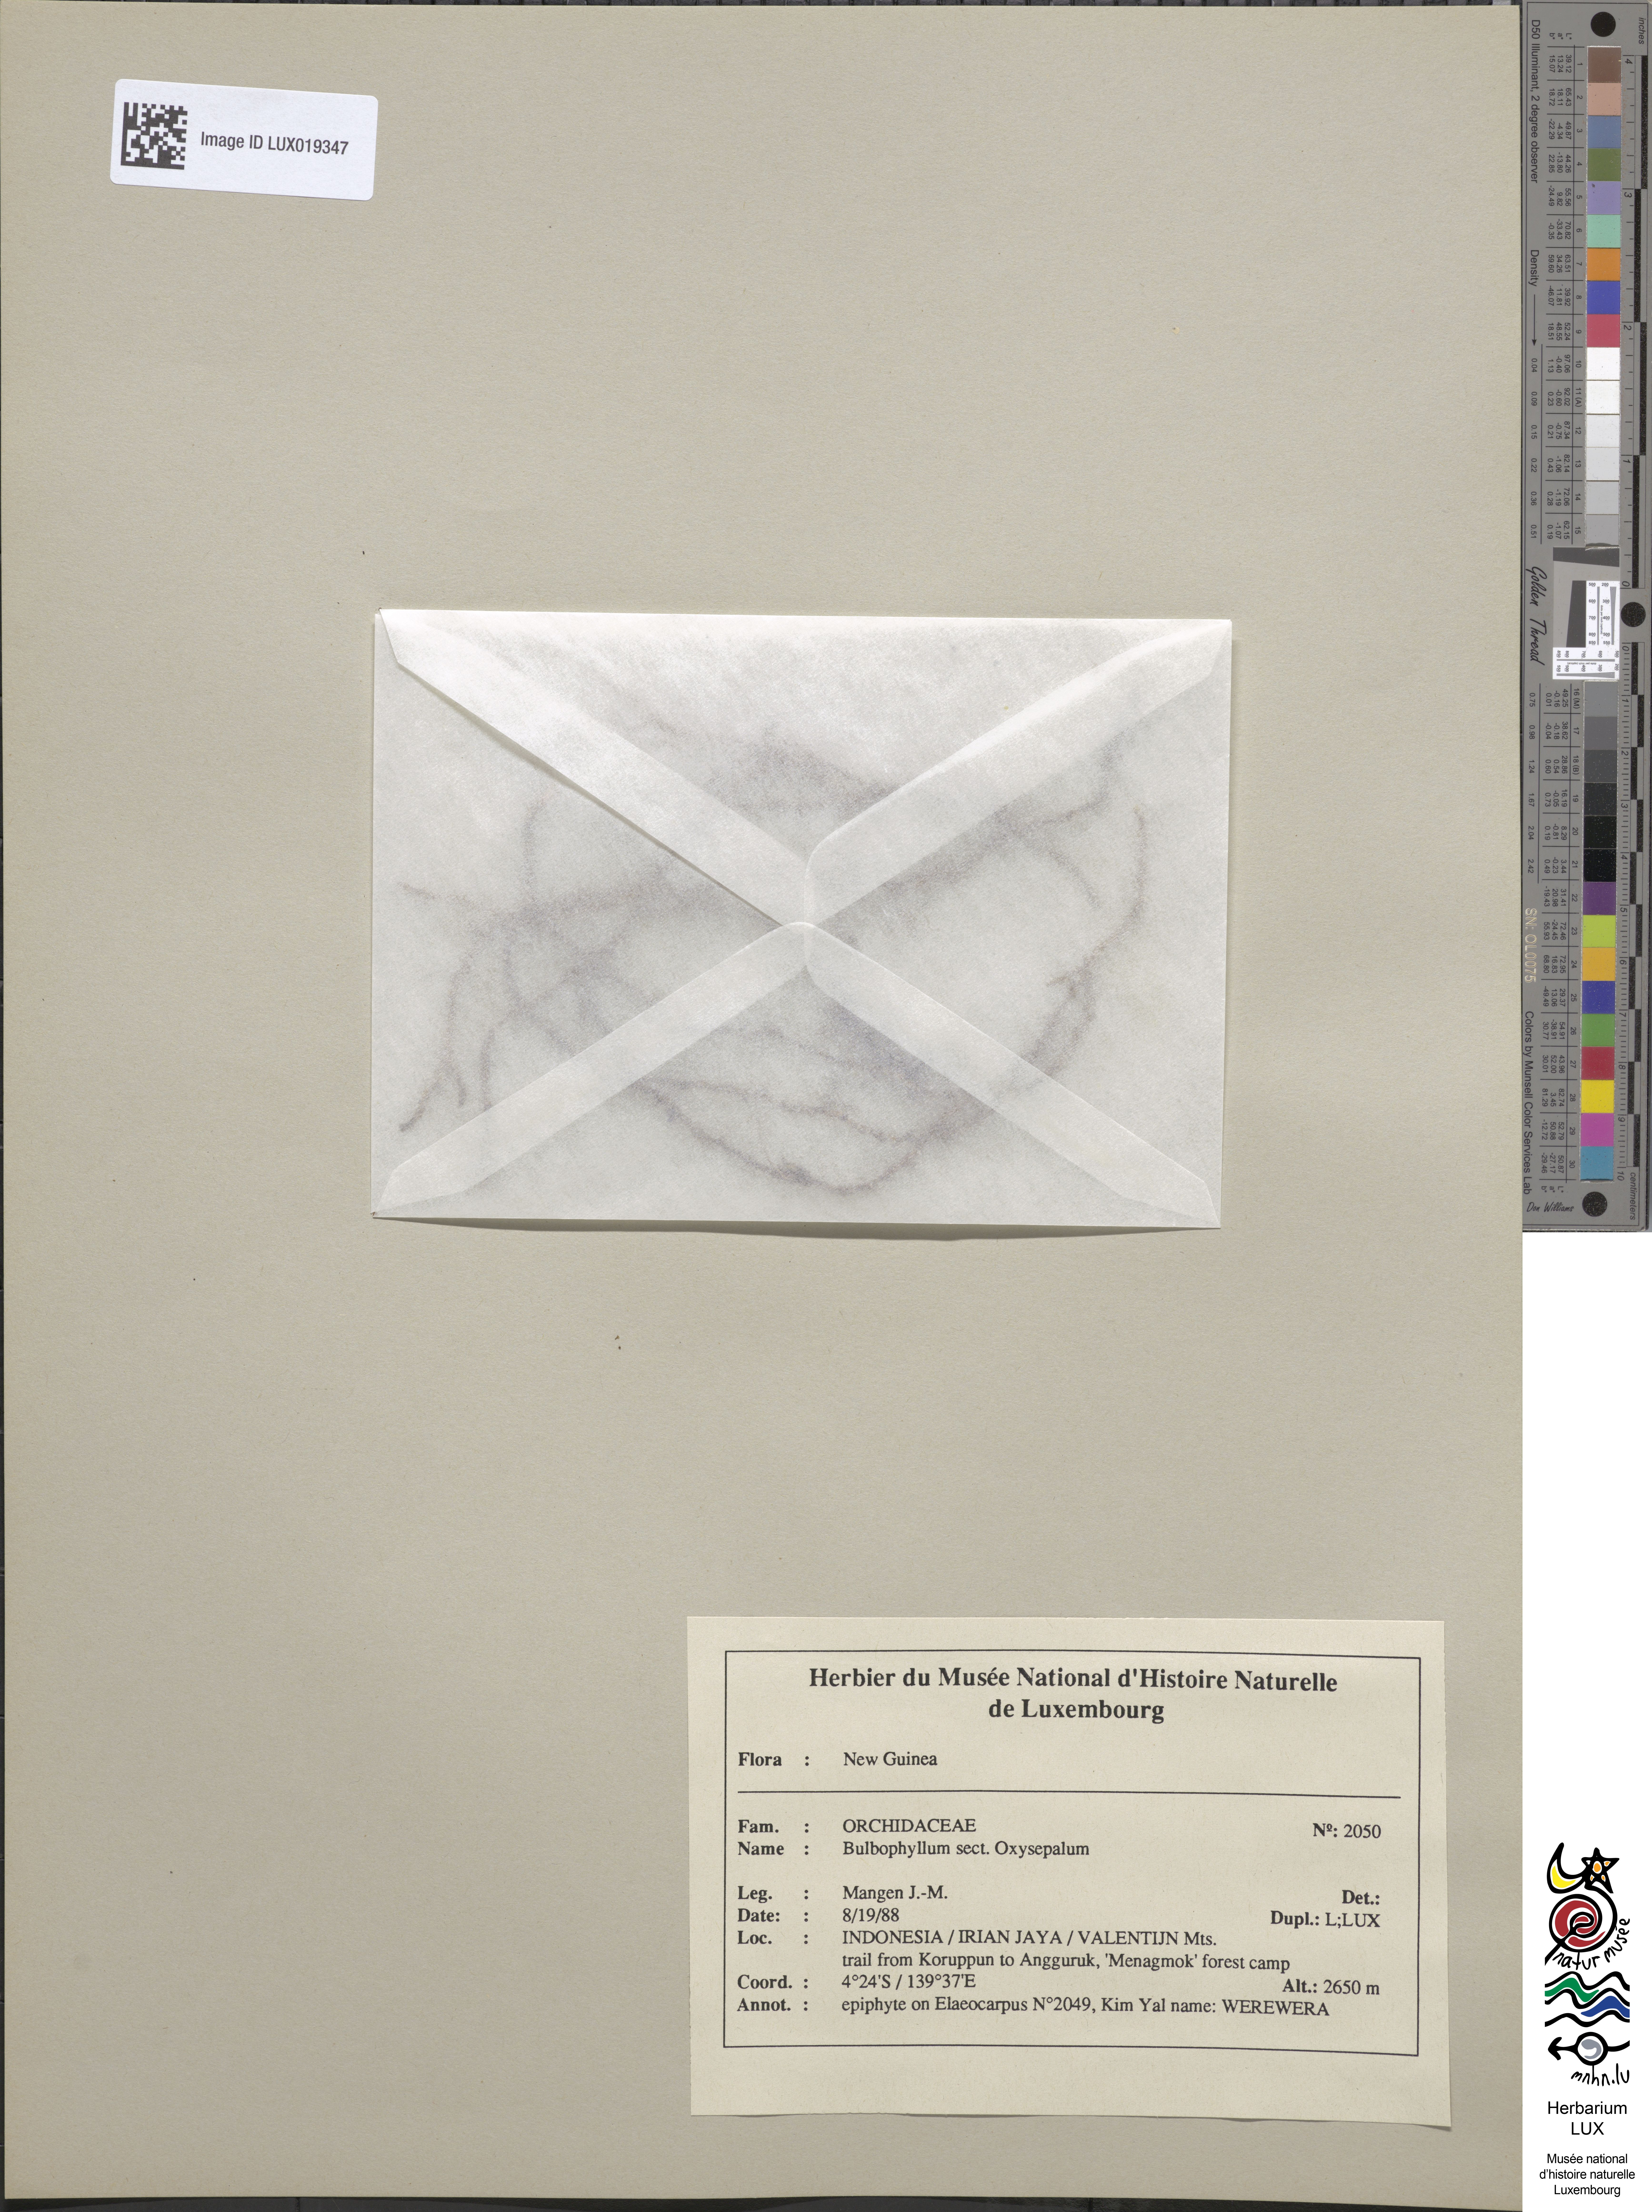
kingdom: Plantae
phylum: Tracheophyta
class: Liliopsida
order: Asparagales
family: Orchidaceae
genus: Bulbophyllum
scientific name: Bulbophyllum
